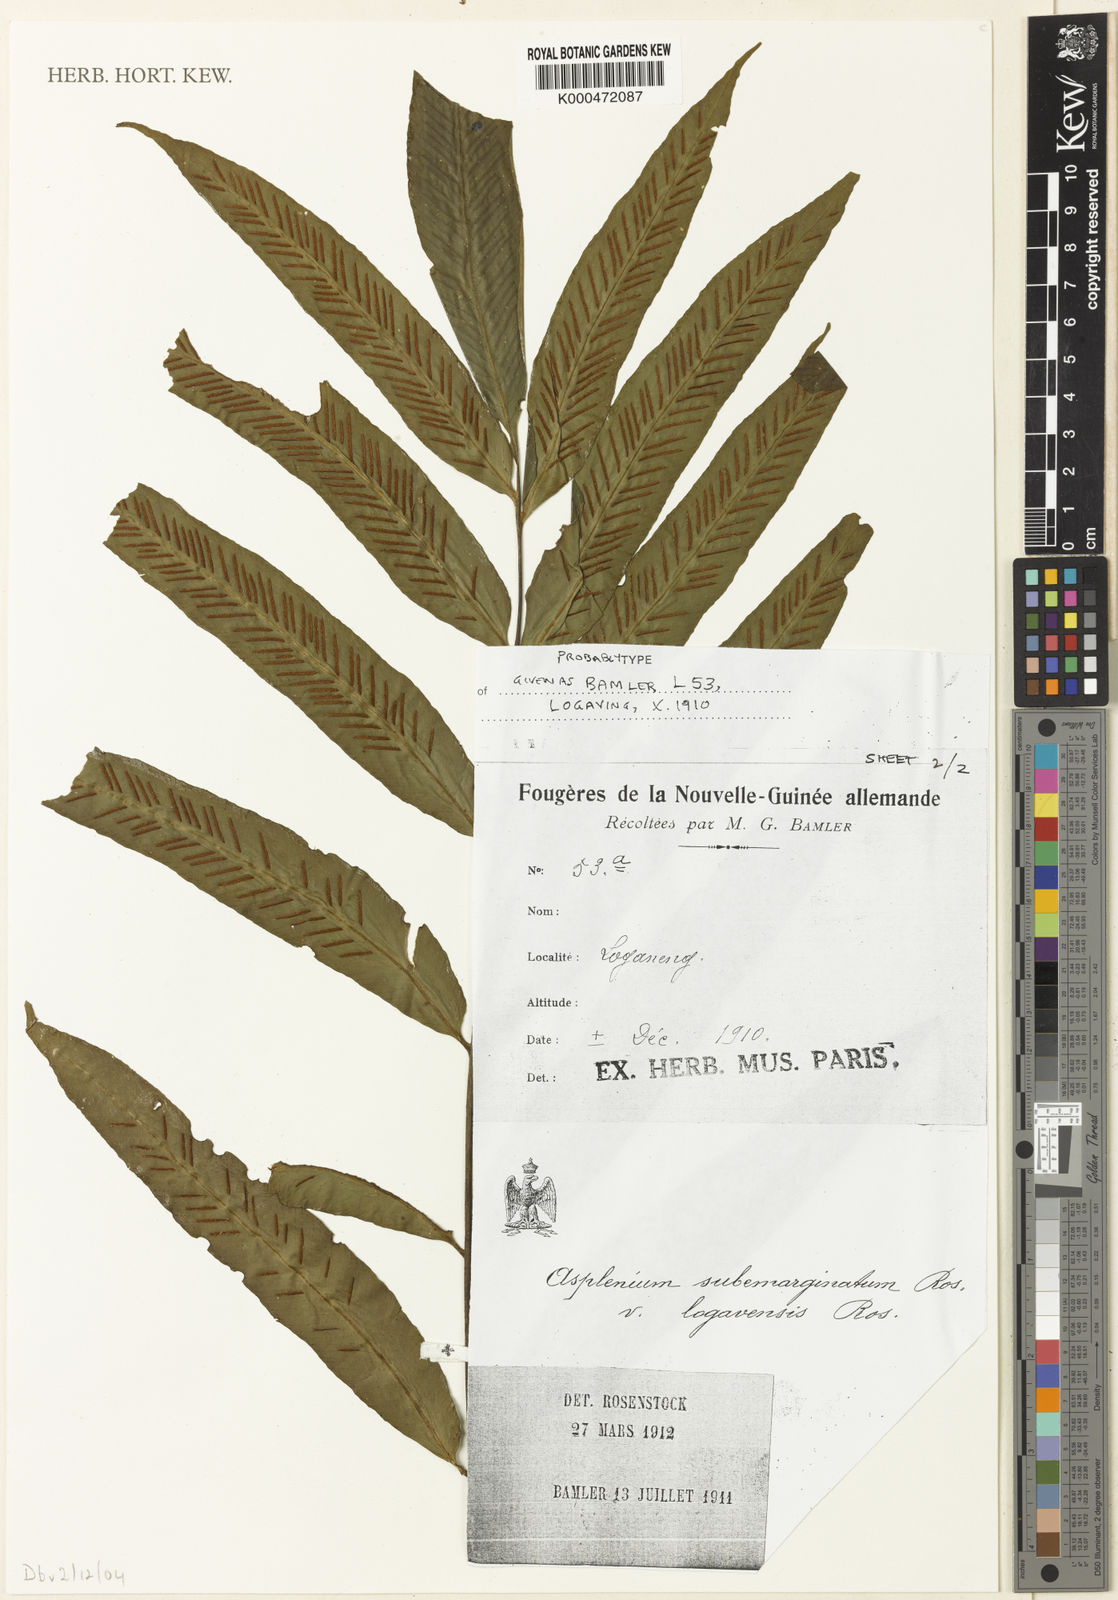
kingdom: Plantae
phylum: Tracheophyta
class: Polypodiopsida
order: Polypodiales
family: Aspleniaceae
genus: Asplenium
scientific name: Asplenium subemarginatum
